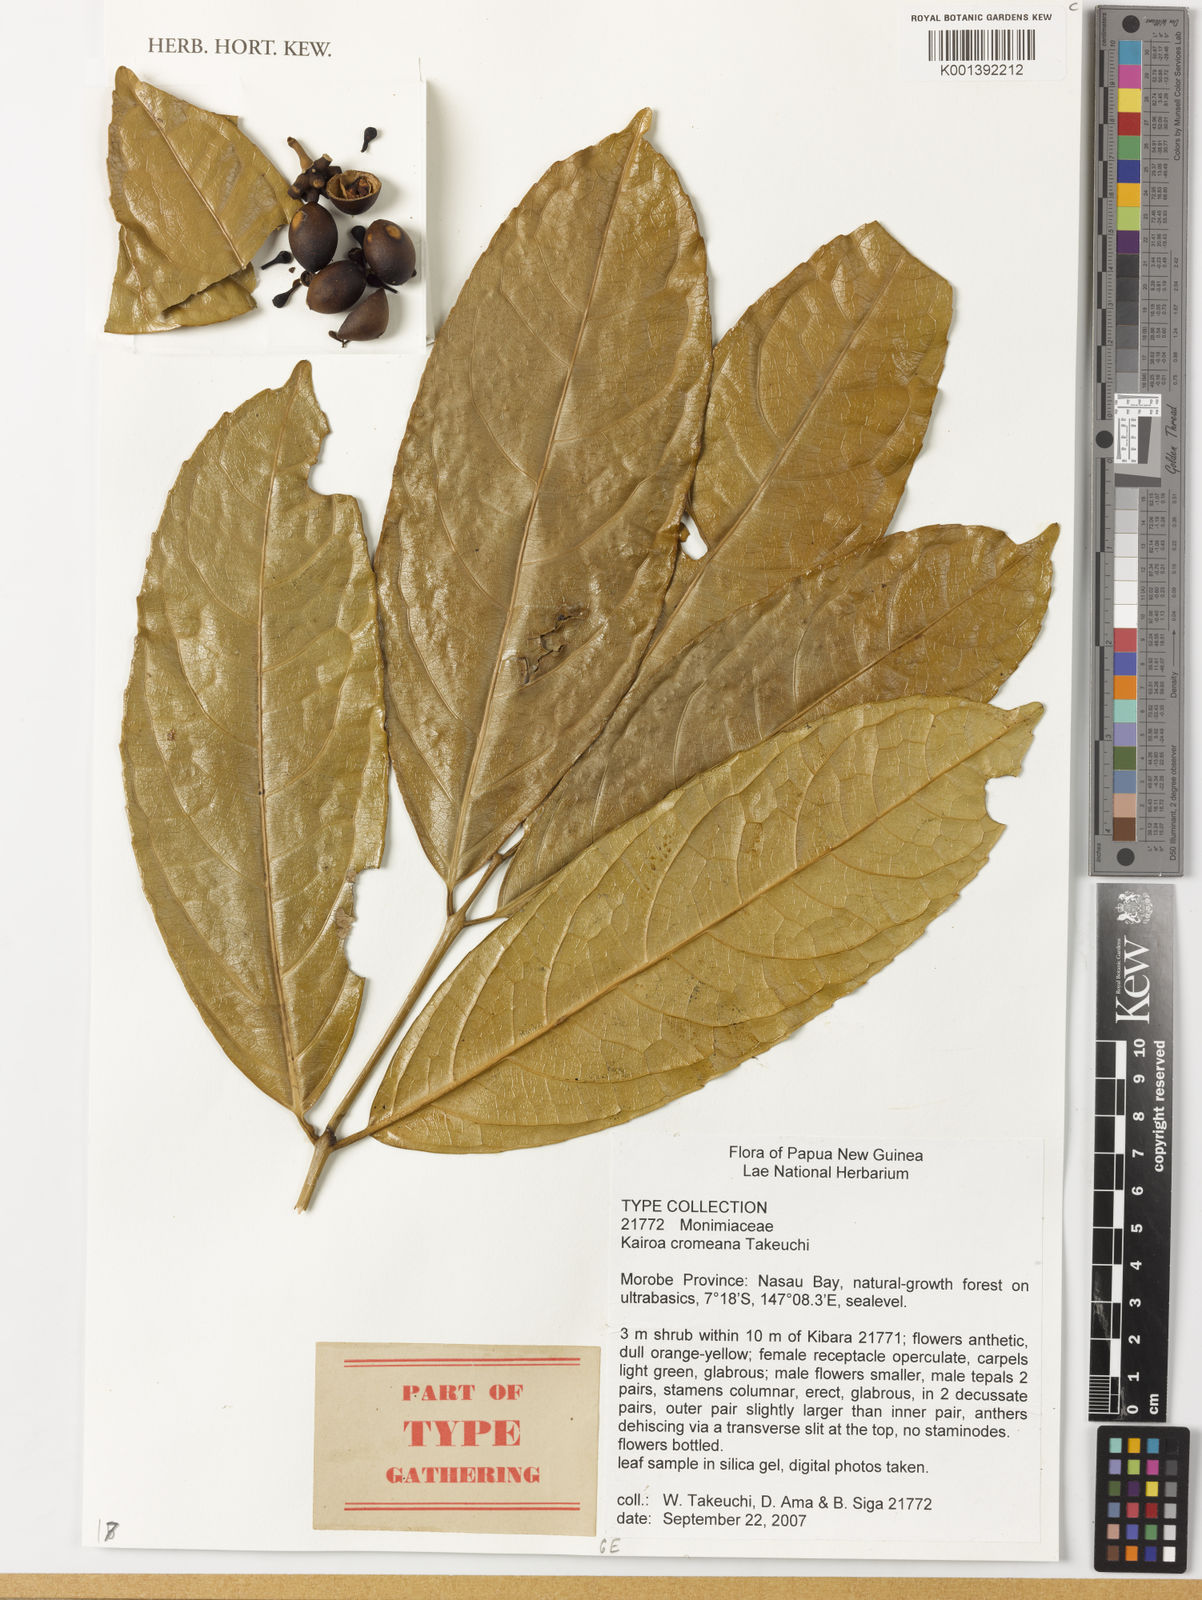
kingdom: Plantae
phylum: Tracheophyta
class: Magnoliopsida
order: Laurales
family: Monimiaceae
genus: Kairoa
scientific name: Kairoa cromeana
